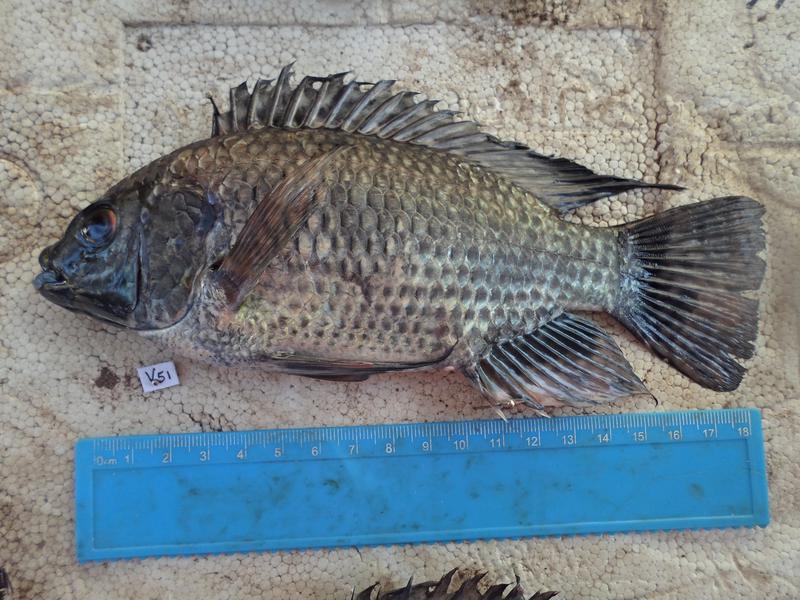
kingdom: Animalia
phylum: Chordata
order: Perciformes
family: Cichlidae
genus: Oreochromis
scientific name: Oreochromis leucostictus
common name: Blue spotted tilapia
